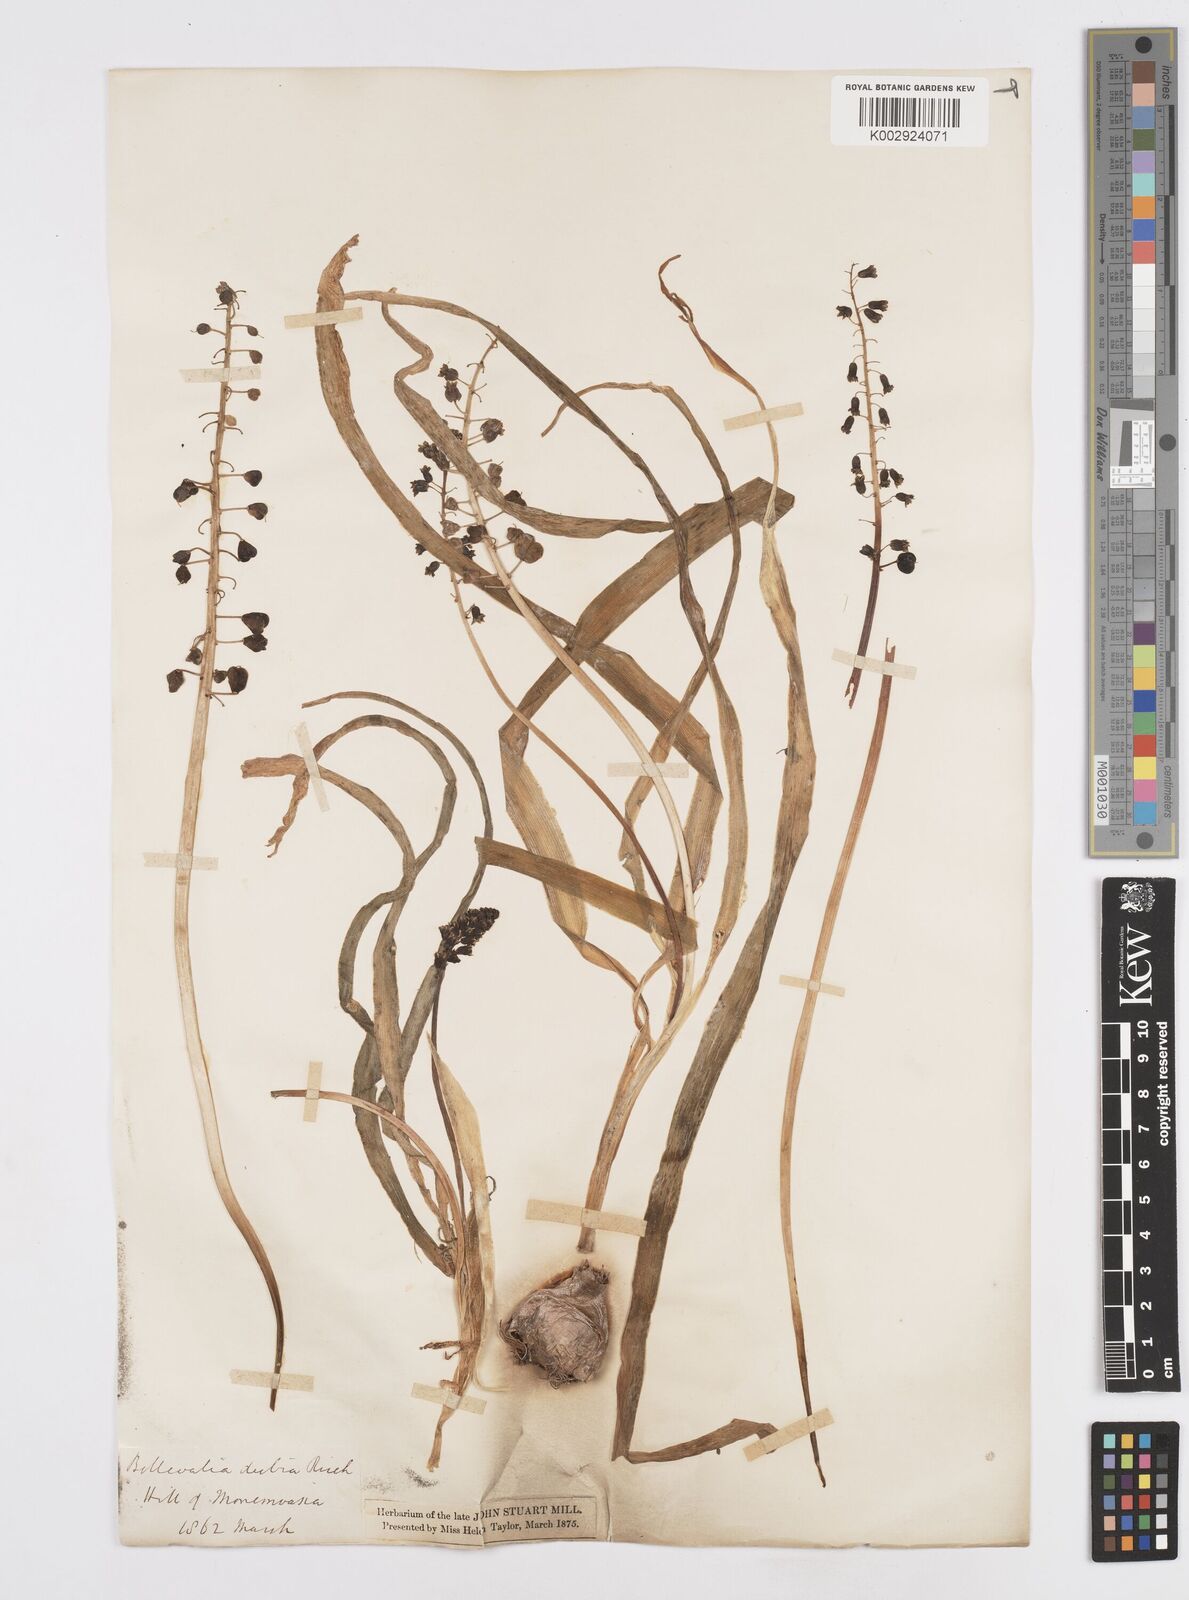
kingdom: Plantae
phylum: Tracheophyta
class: Liliopsida
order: Asparagales
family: Asparagaceae
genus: Bellevalia
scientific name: Bellevalia dubia
